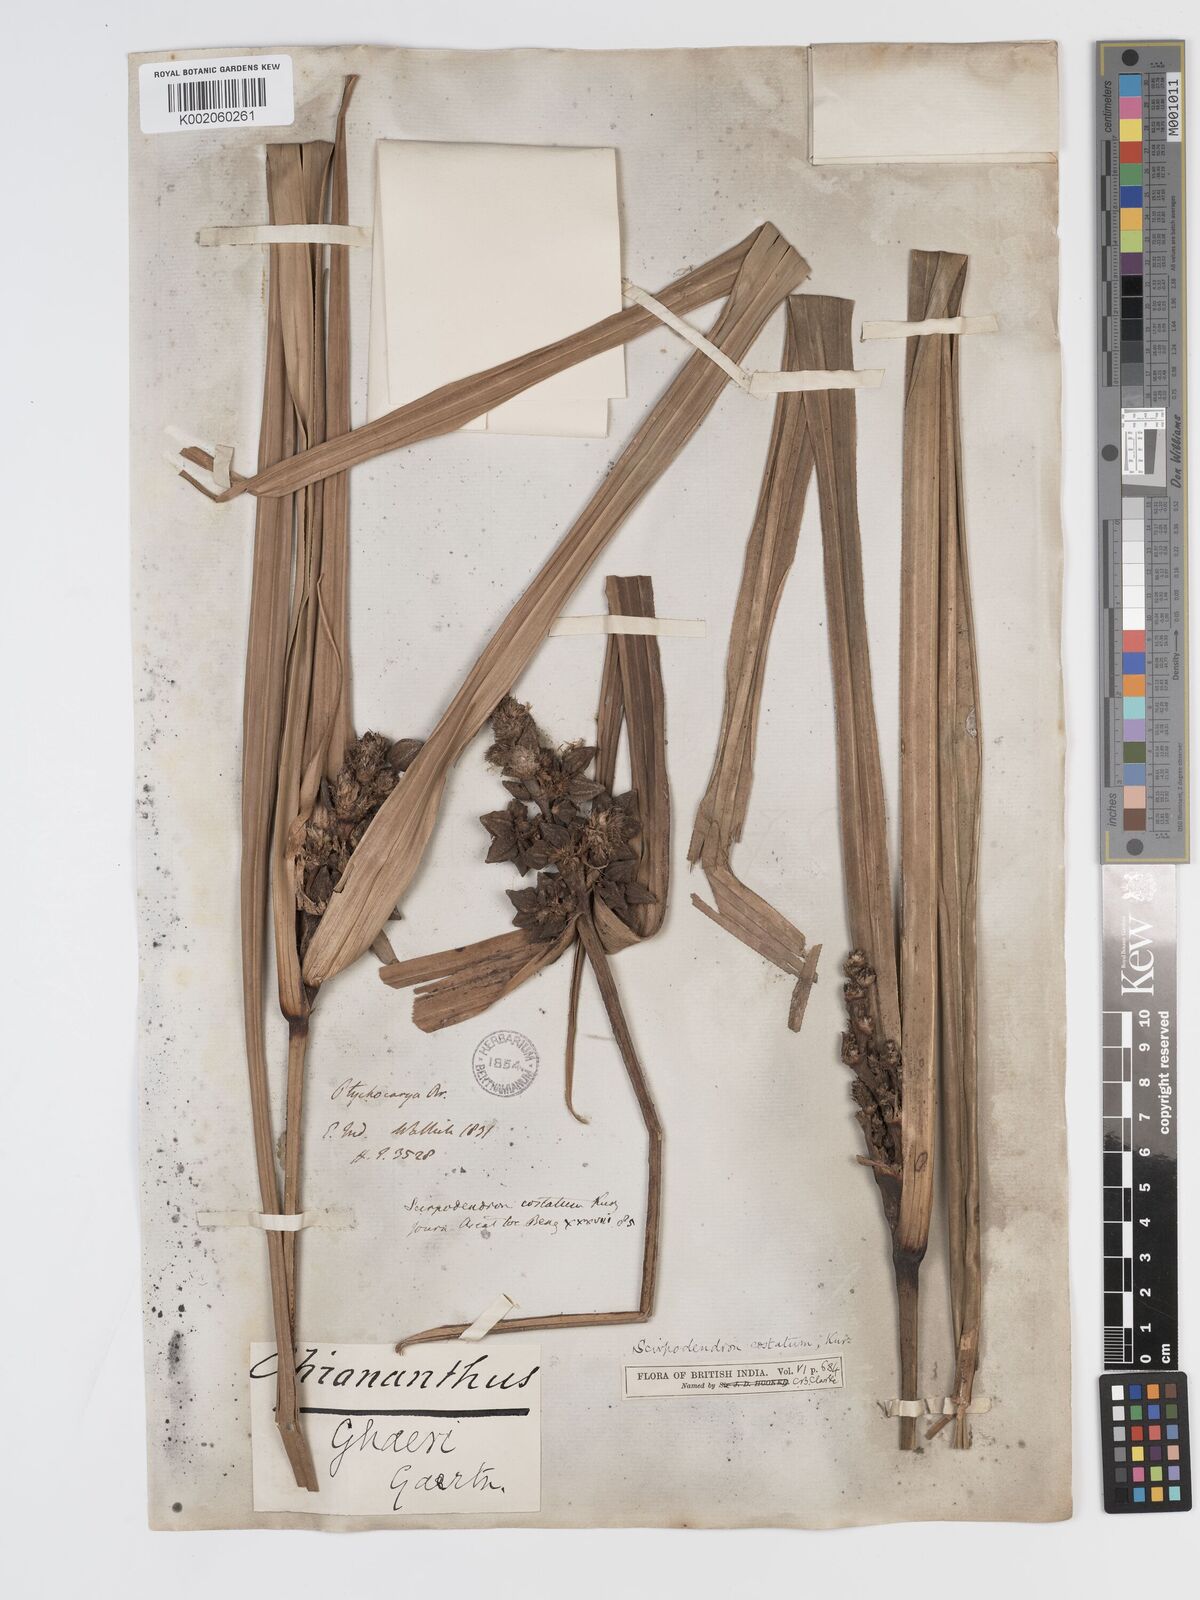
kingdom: Plantae
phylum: Tracheophyta
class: Liliopsida
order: Poales
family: Cyperaceae
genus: Scirpodendron
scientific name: Scirpodendron ghaeri
